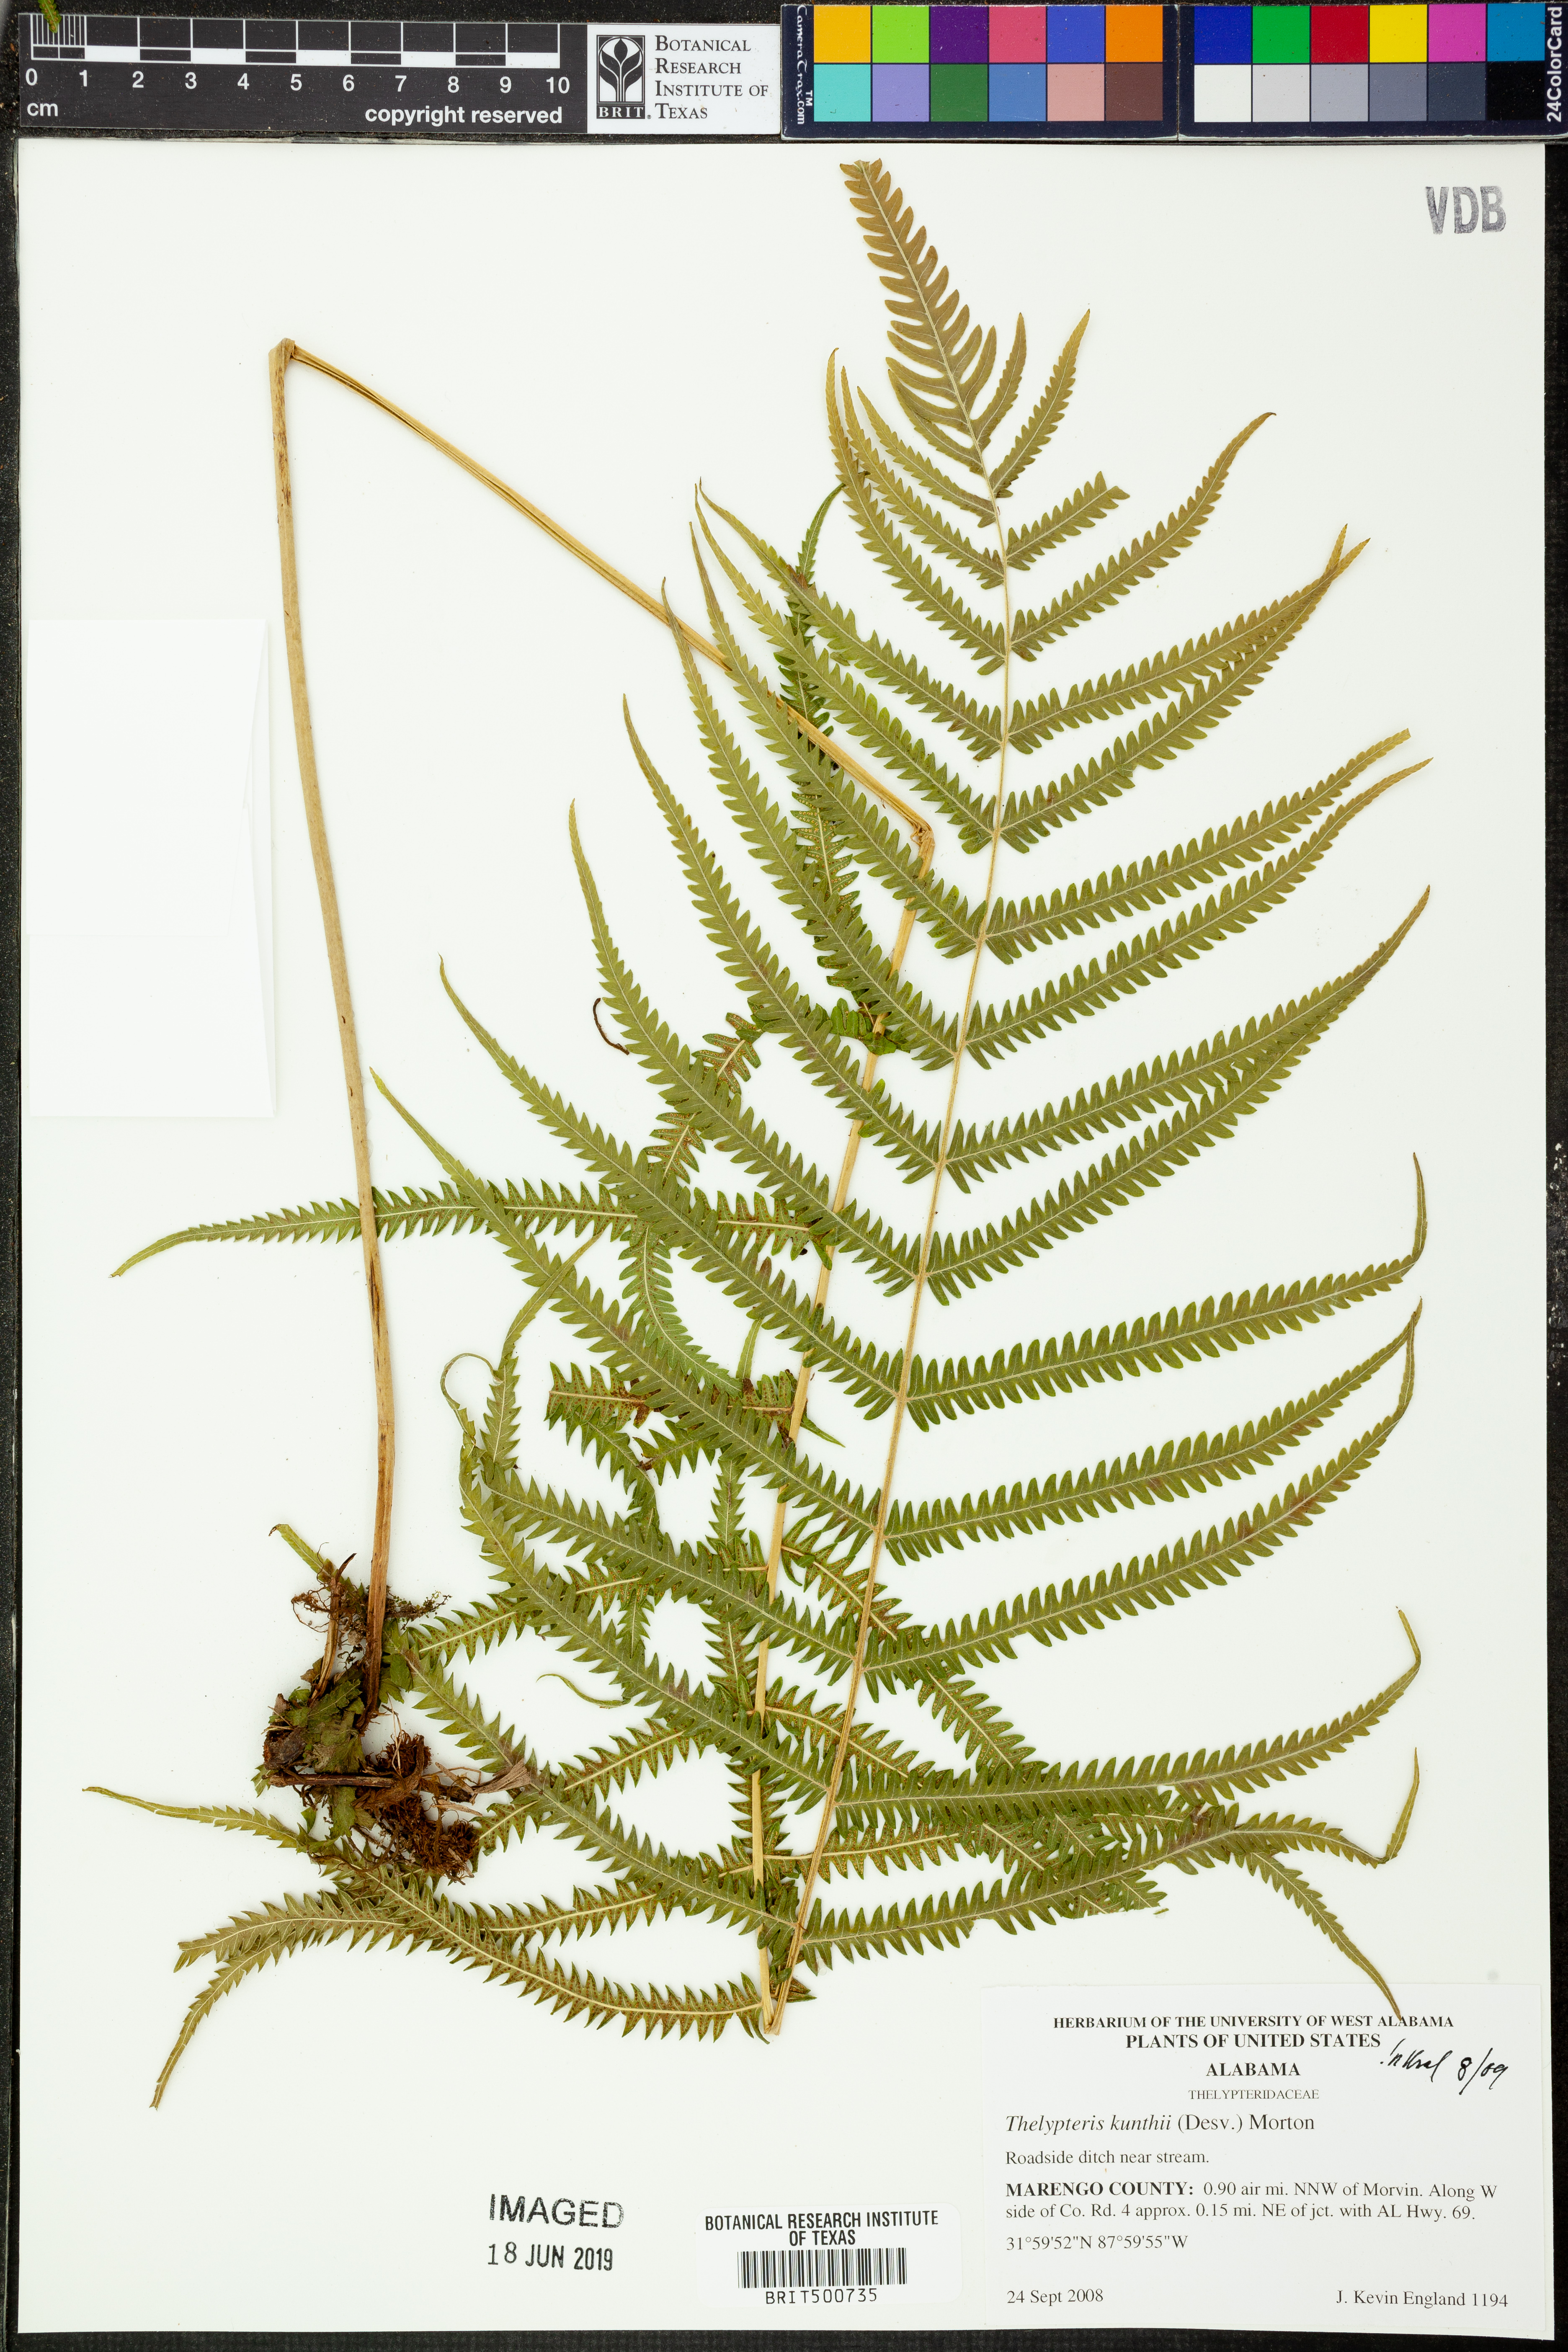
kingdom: Plantae
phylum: Tracheophyta
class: Polypodiopsida
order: Polypodiales
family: Thelypteridaceae
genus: Pelazoneuron
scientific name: Pelazoneuron kunthii
